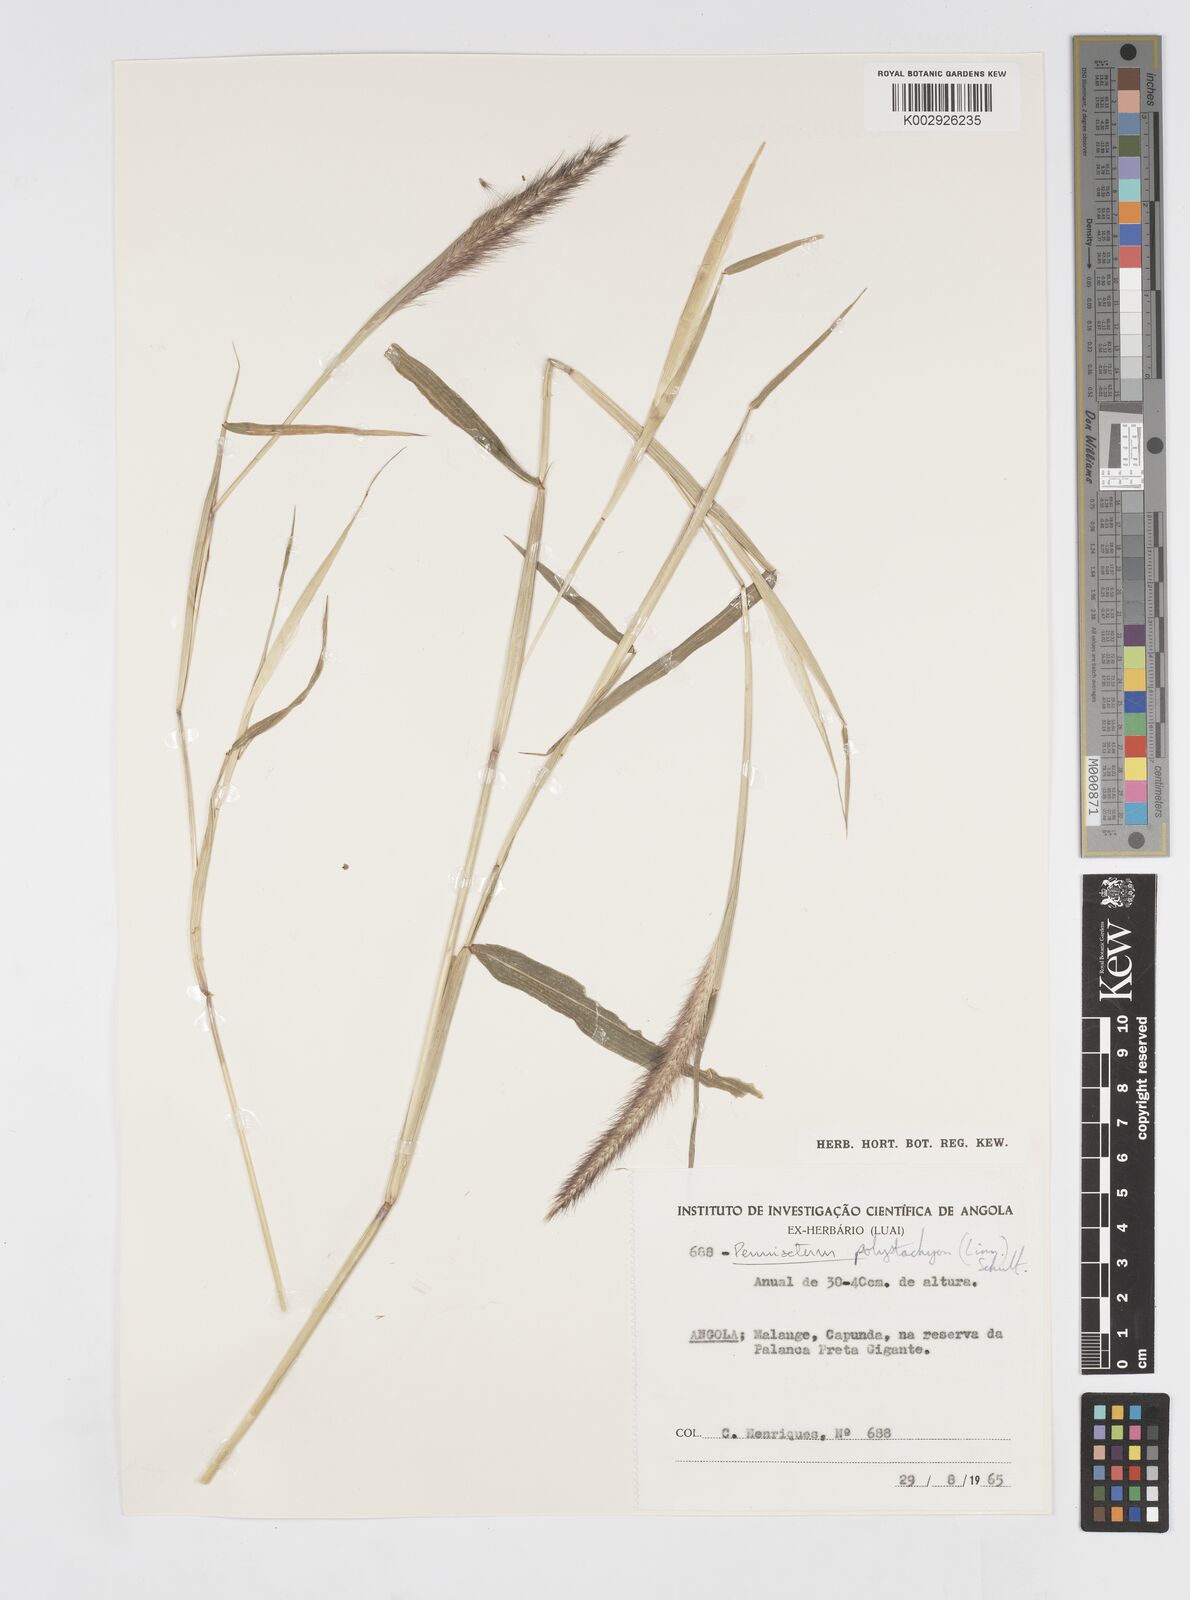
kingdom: Plantae
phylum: Tracheophyta
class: Liliopsida
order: Poales
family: Poaceae
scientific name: Poaceae
